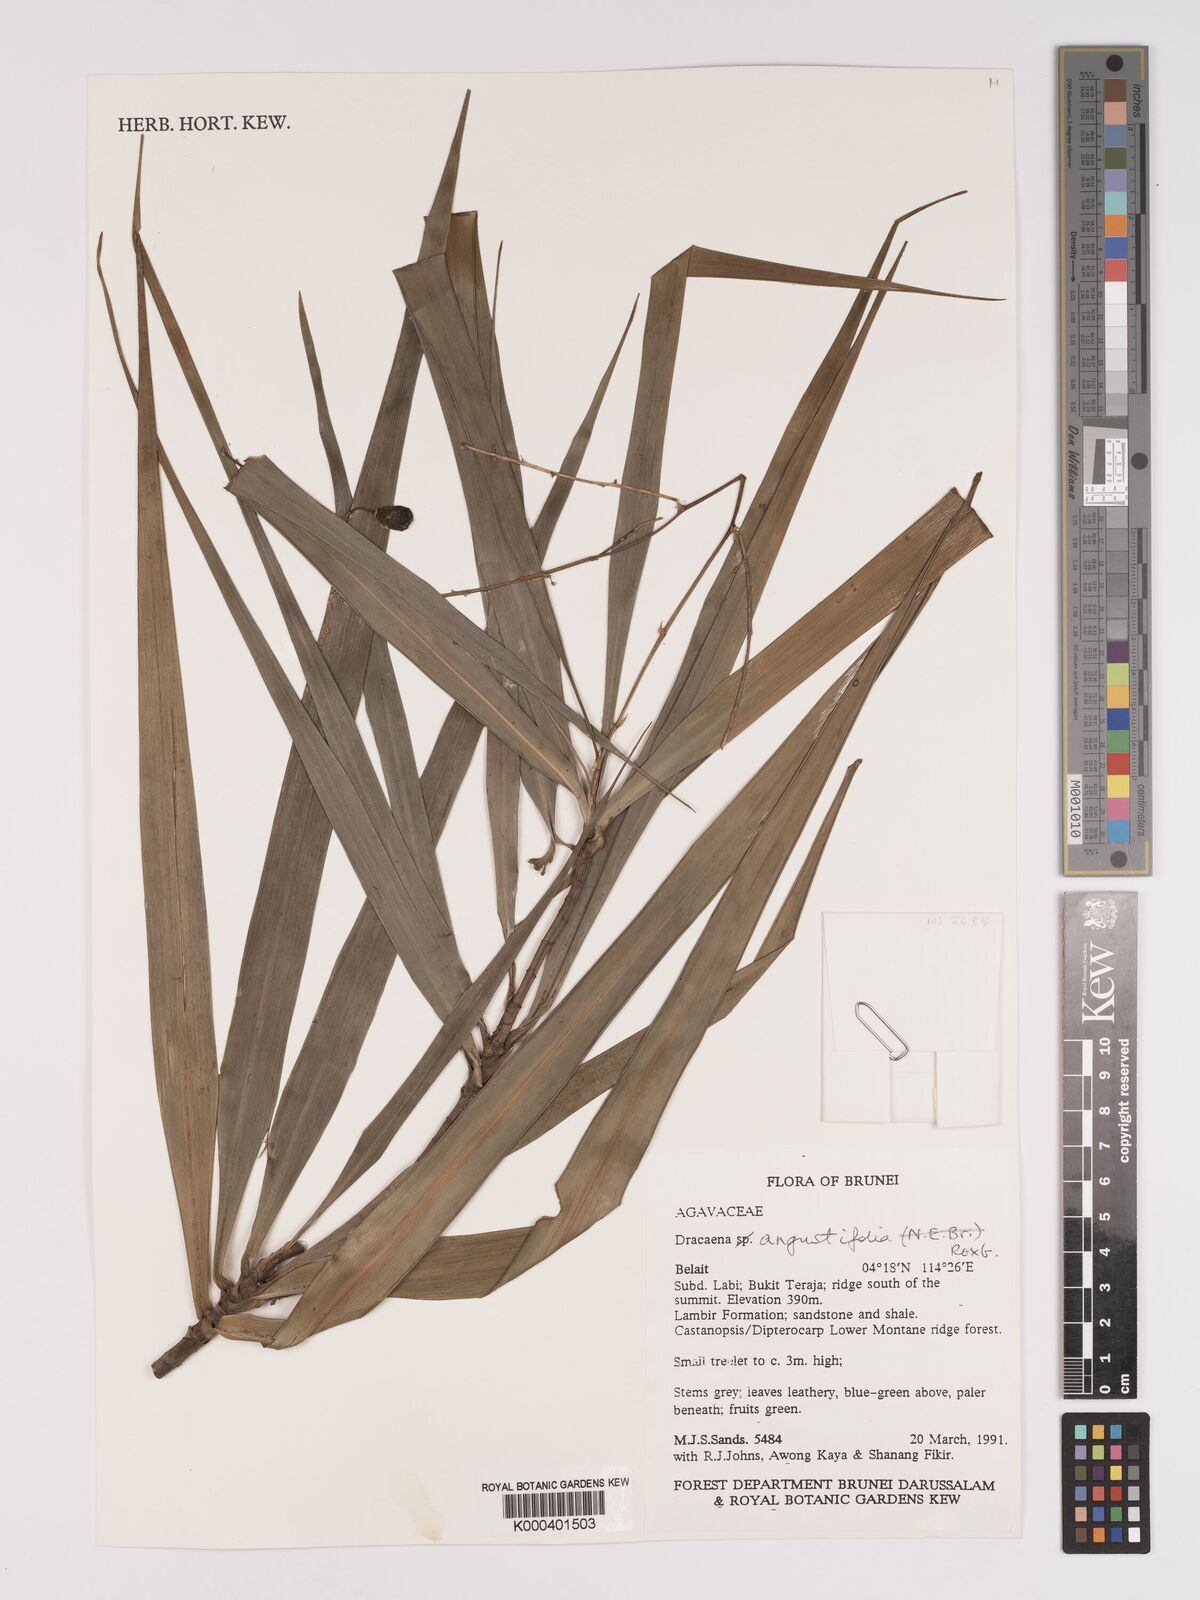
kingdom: Plantae
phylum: Tracheophyta
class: Liliopsida
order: Asparagales
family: Asparagaceae
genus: Dracaena
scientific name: Dracaena angustifolia
